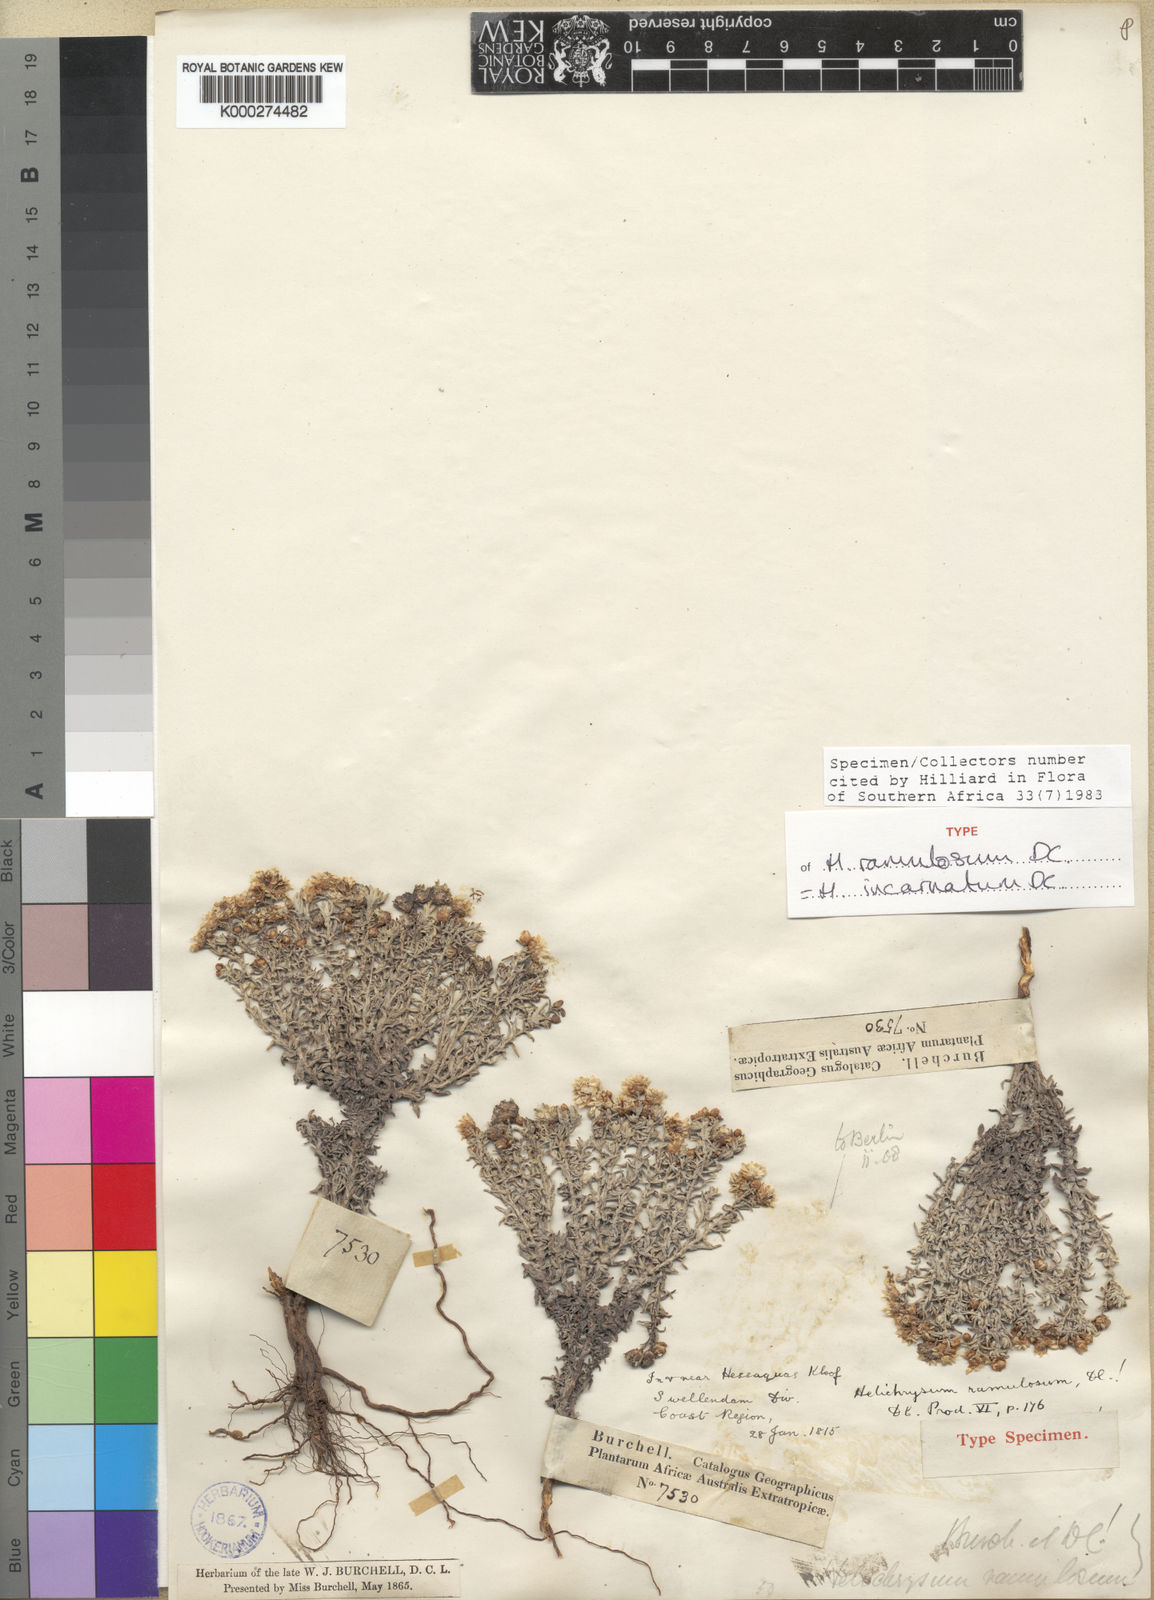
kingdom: Plantae
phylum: Tracheophyta
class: Magnoliopsida
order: Asterales
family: Asteraceae
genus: Helichrysum
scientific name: Helichrysum incarnatum
